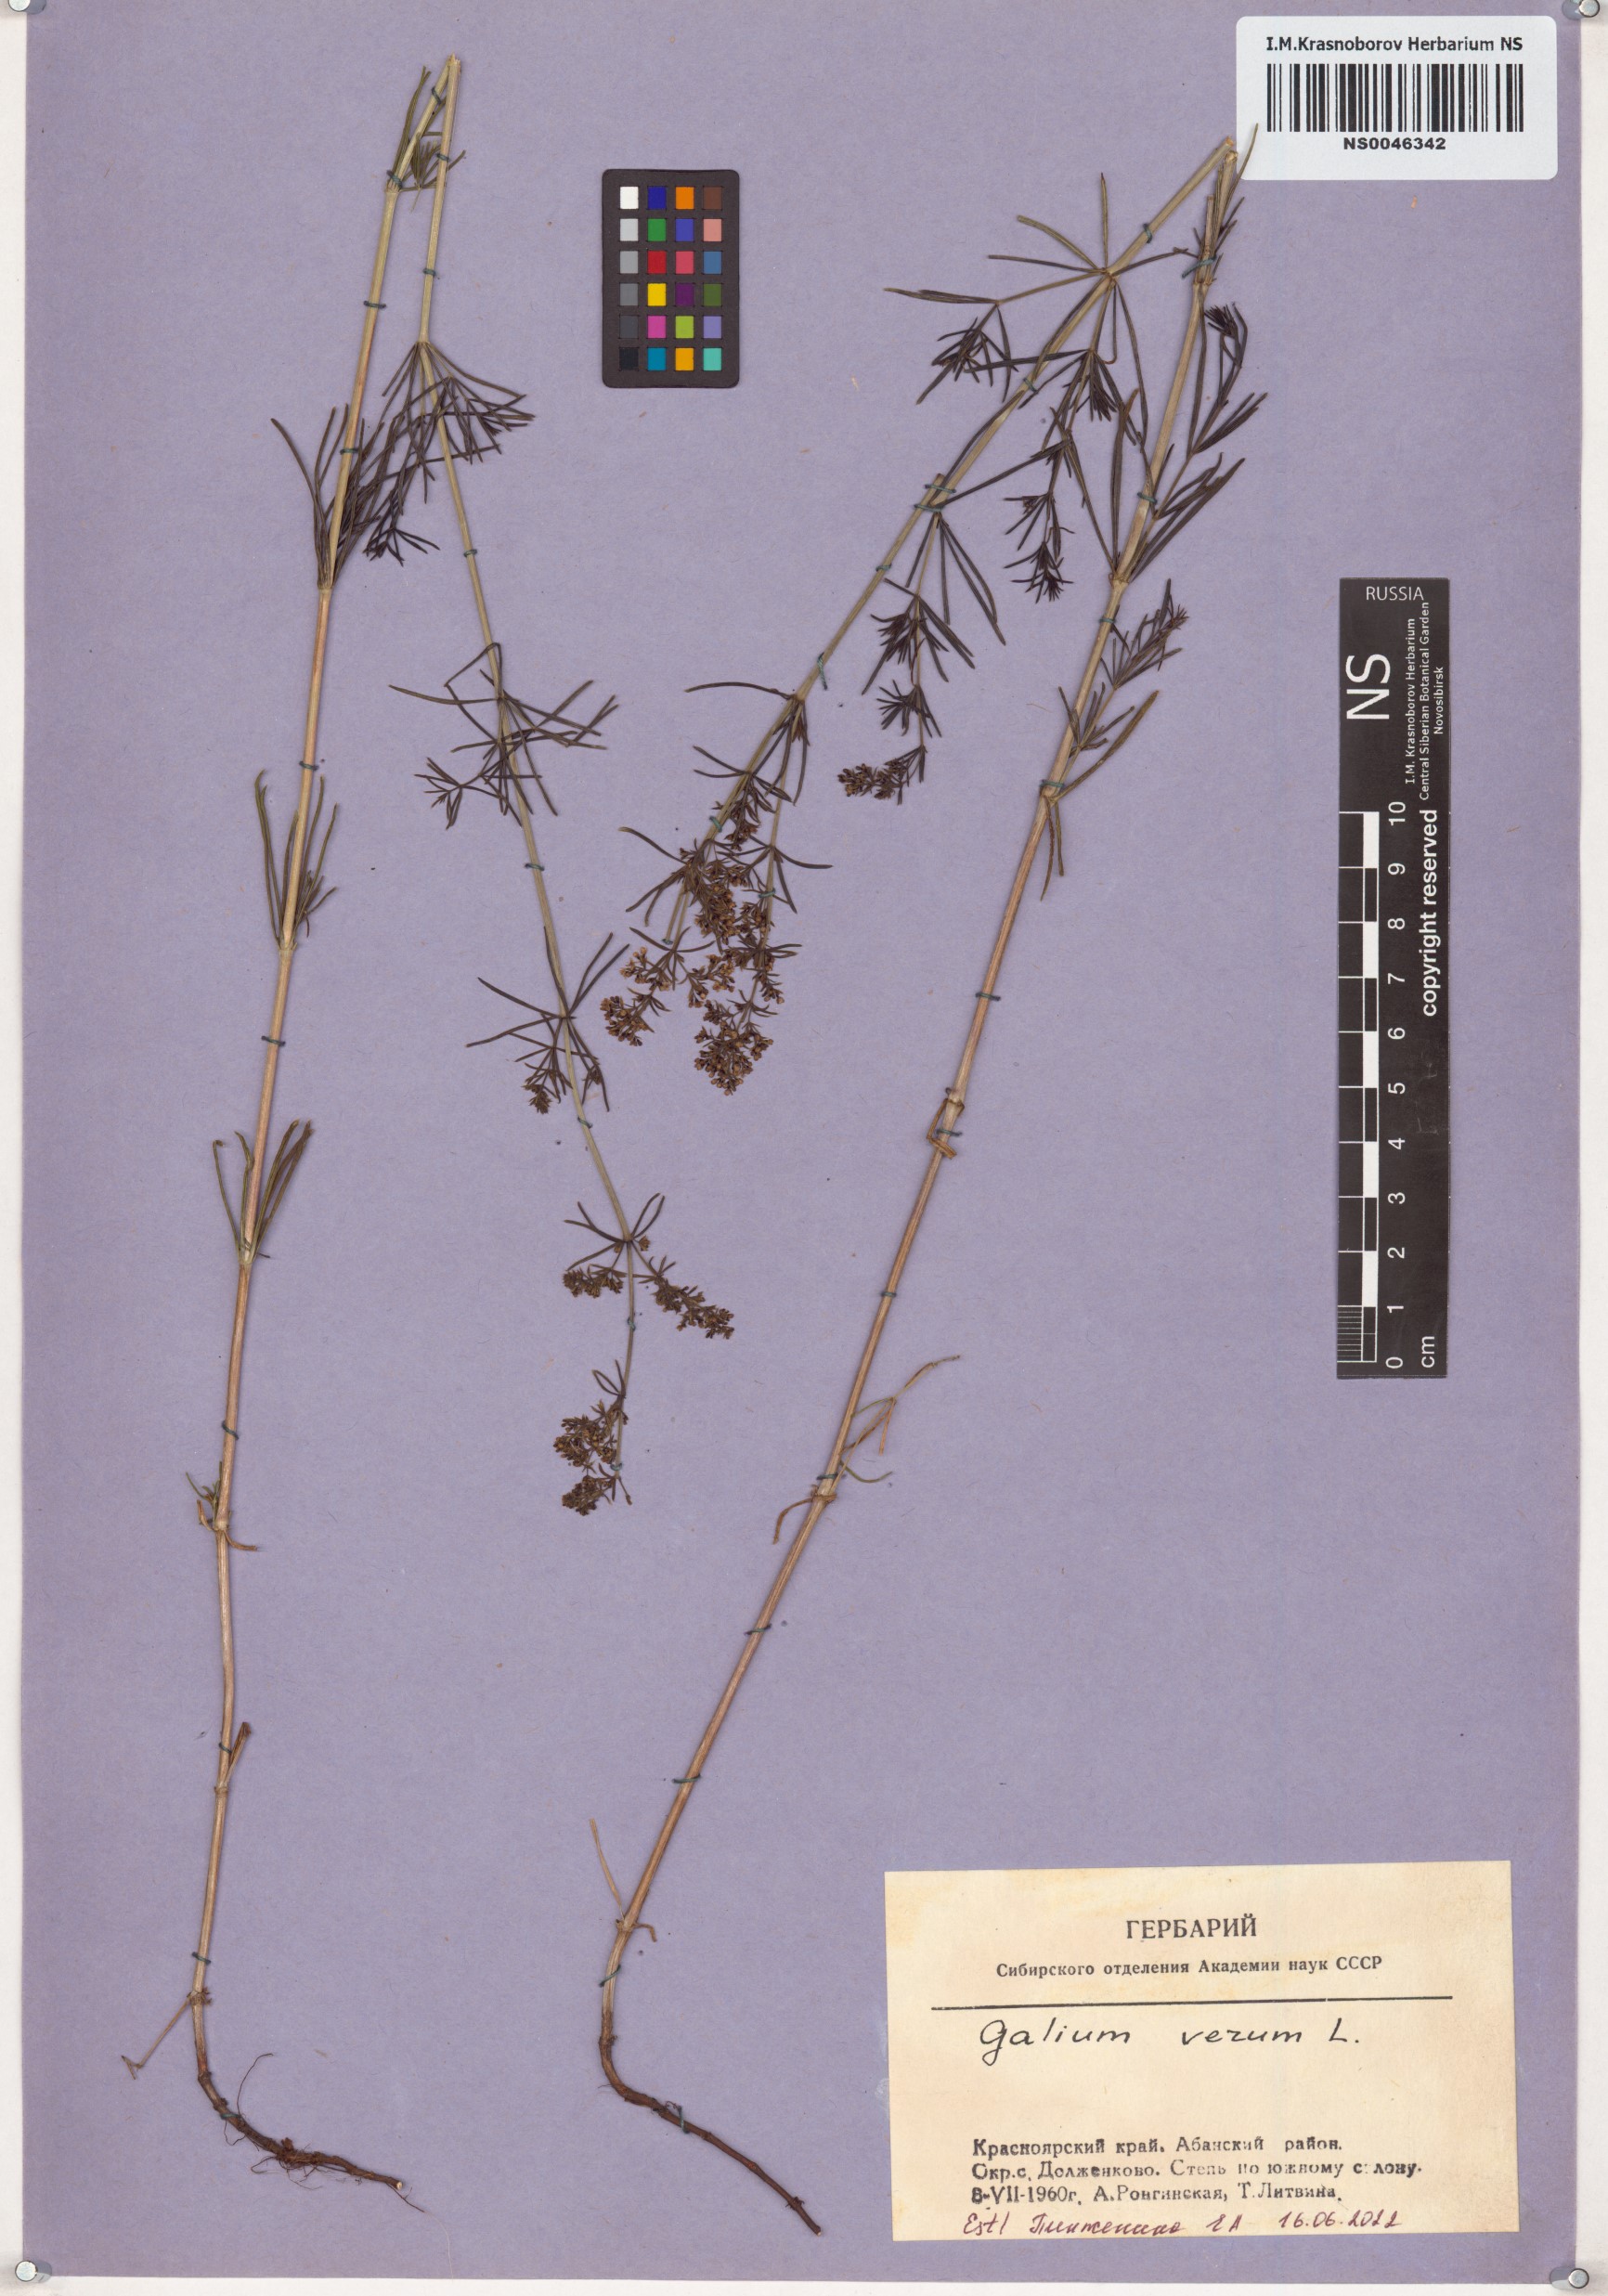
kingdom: Plantae
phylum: Tracheophyta
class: Magnoliopsida
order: Gentianales
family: Rubiaceae
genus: Galium
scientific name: Galium verum
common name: Lady's bedstraw
